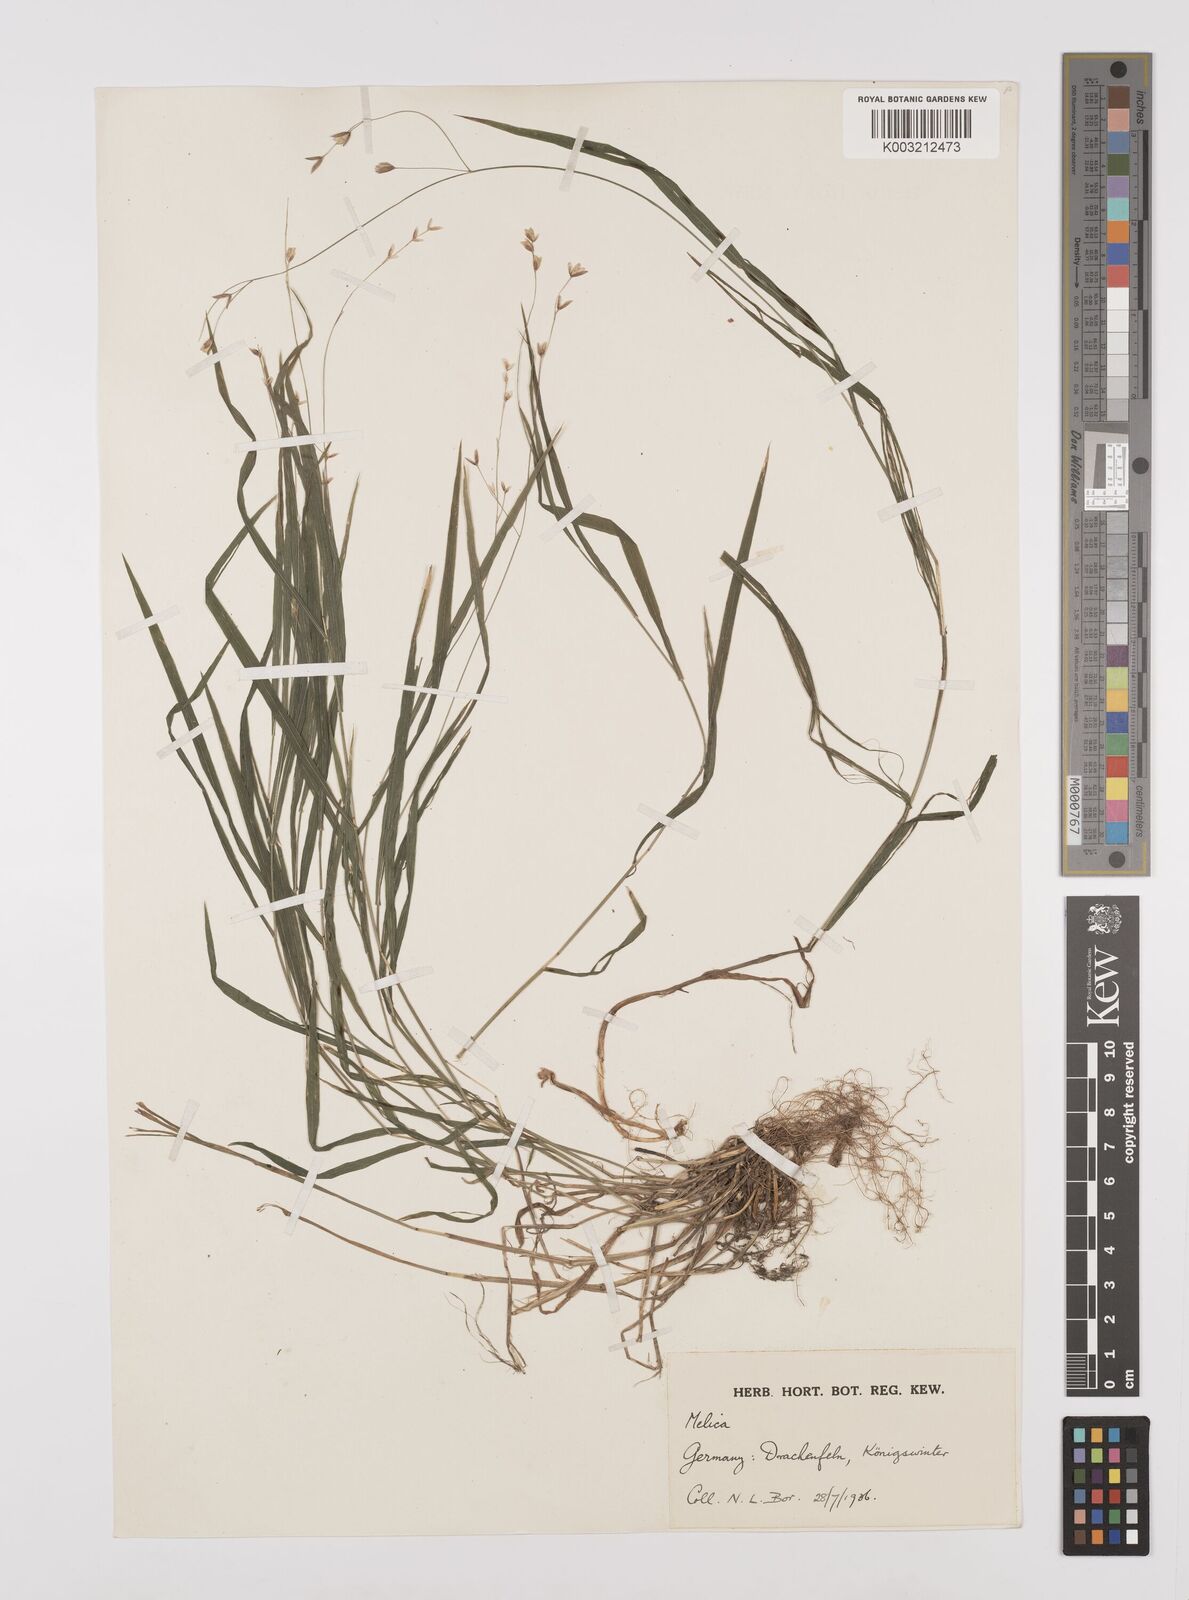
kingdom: Plantae
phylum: Tracheophyta
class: Liliopsida
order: Poales
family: Poaceae
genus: Melica
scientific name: Melica uniflora
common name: Wood melick
